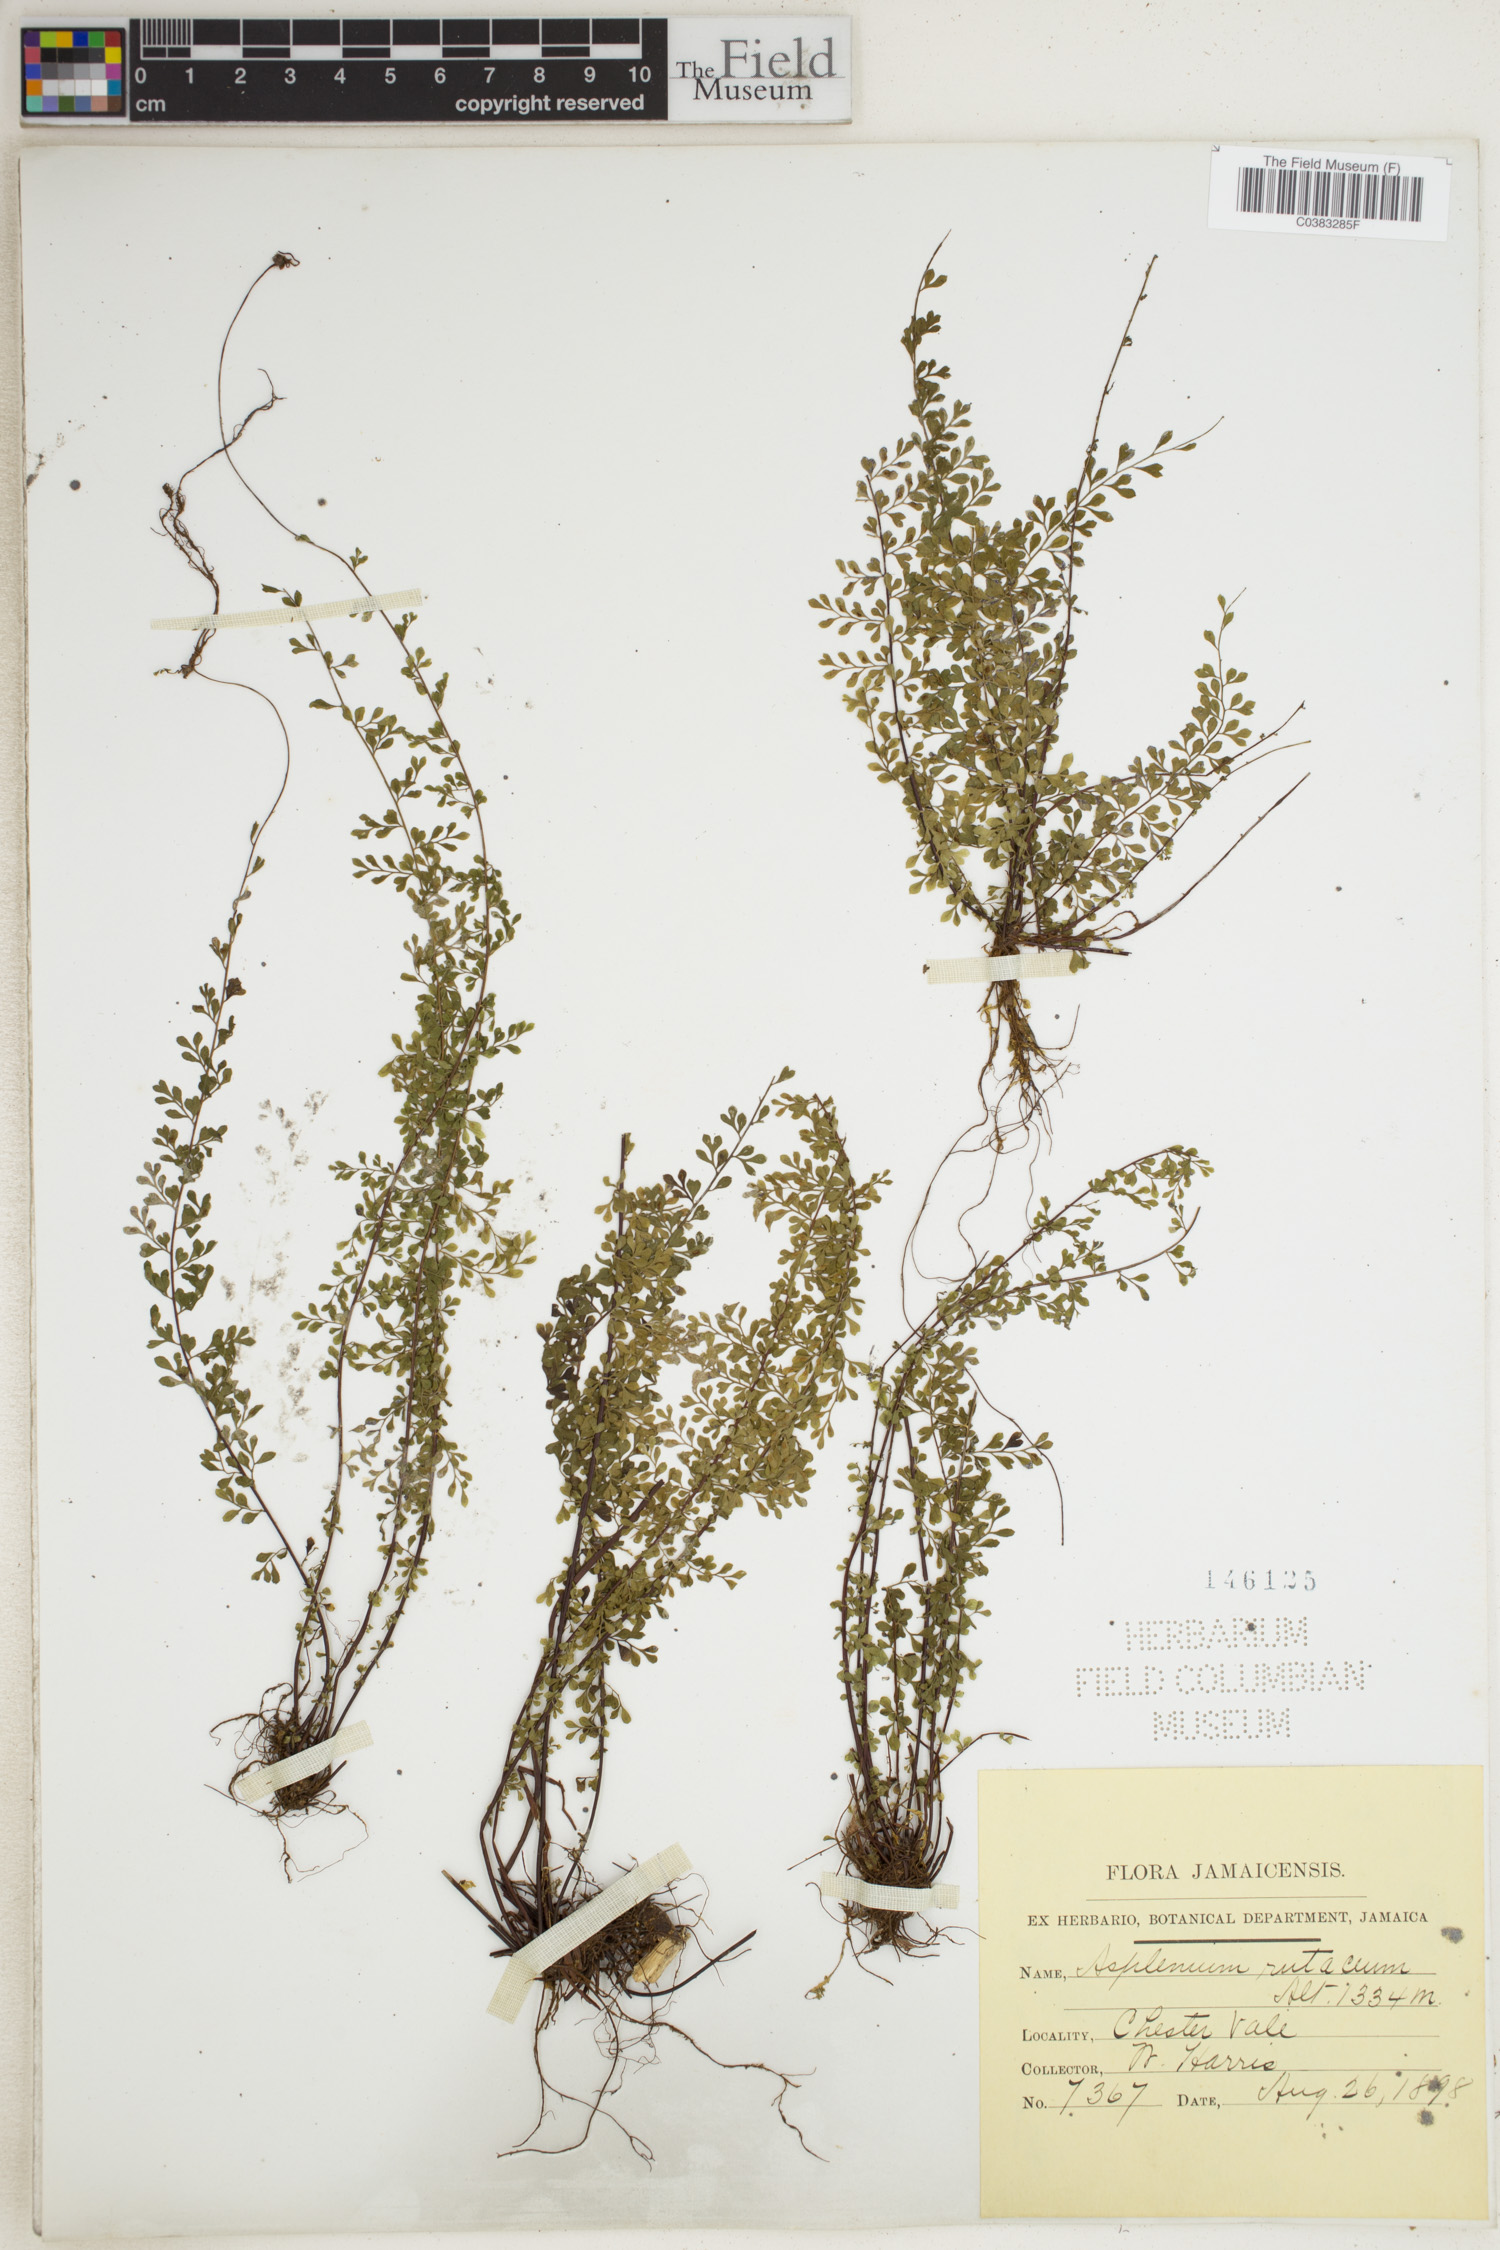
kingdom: Plantae
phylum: Tracheophyta
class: Polypodiopsida
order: Polypodiales
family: Aspleniaceae
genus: Asplenium
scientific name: Asplenium rutaceum
